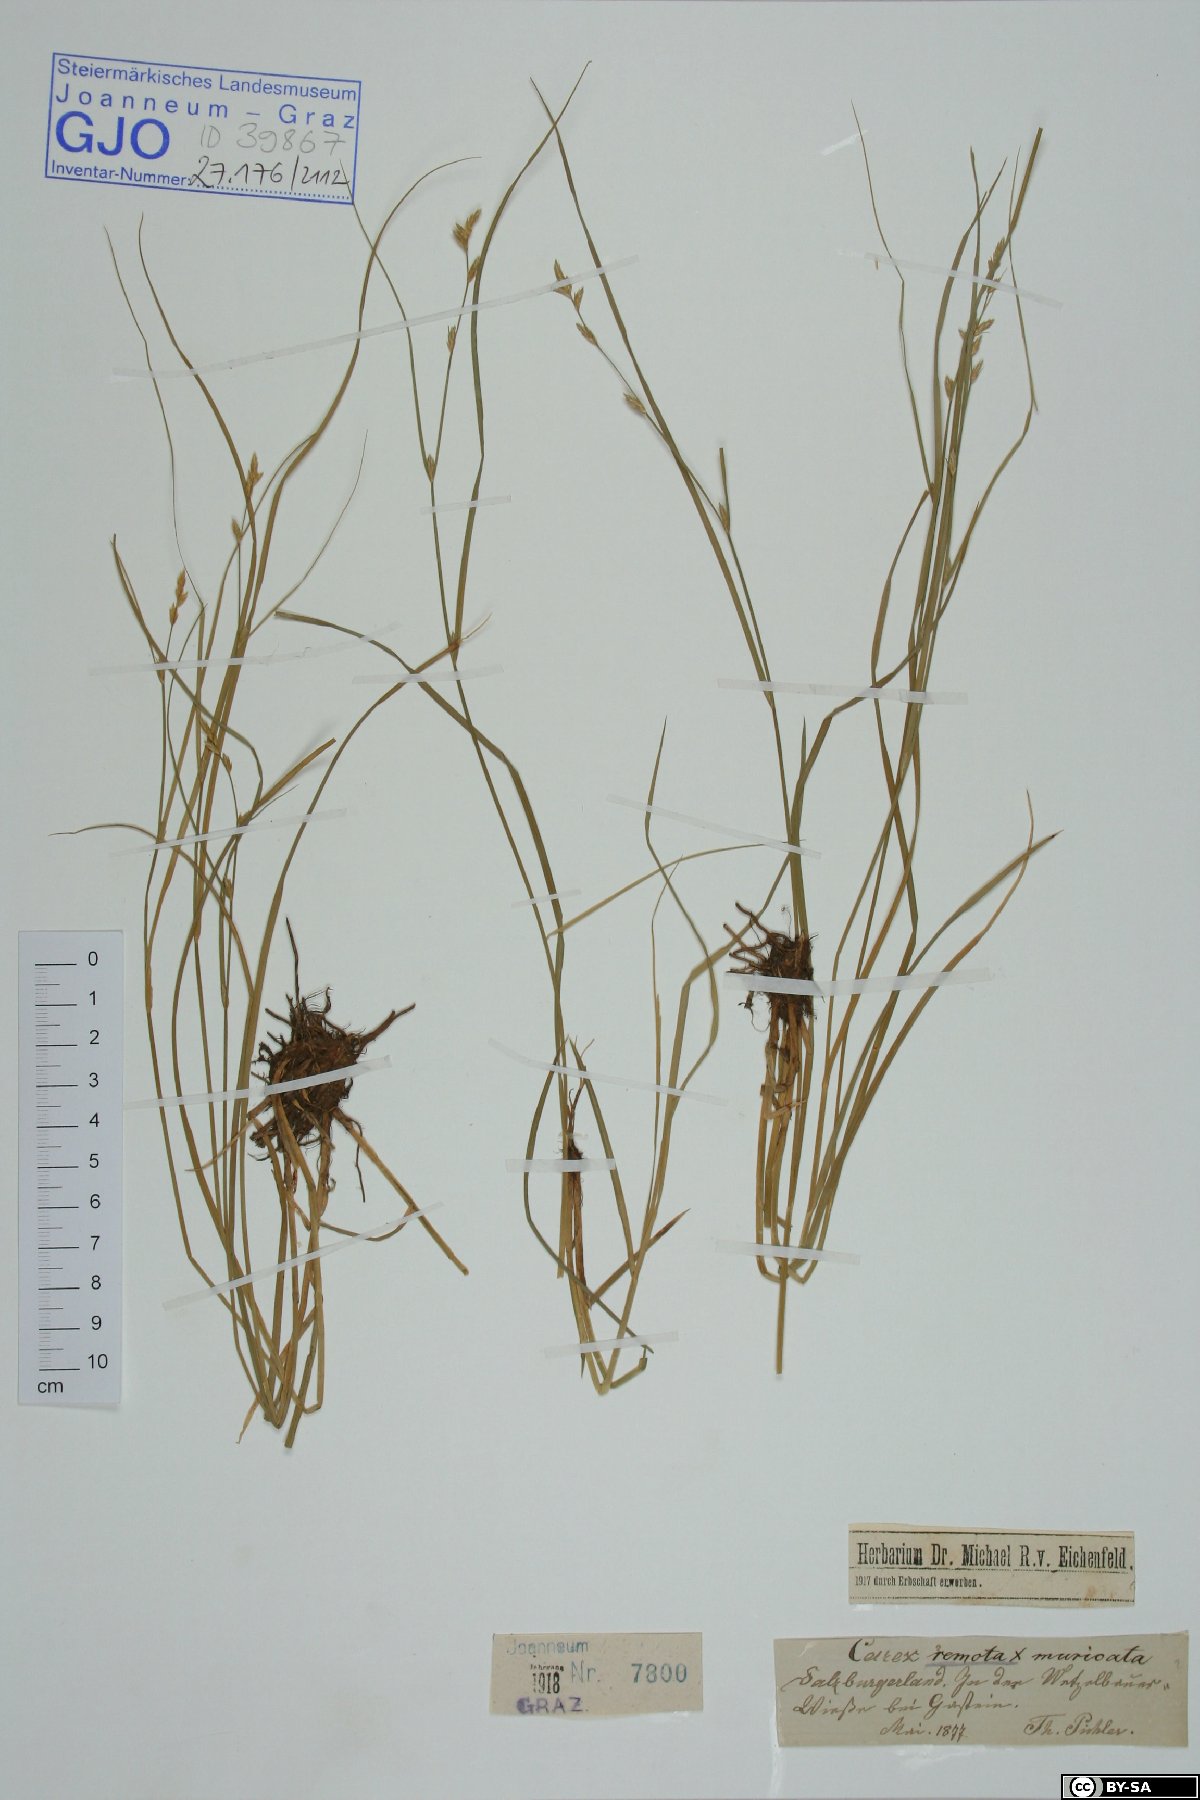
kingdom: Plantae
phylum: Tracheophyta
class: Liliopsida
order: Poales
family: Cyperaceae
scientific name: Cyperaceae
